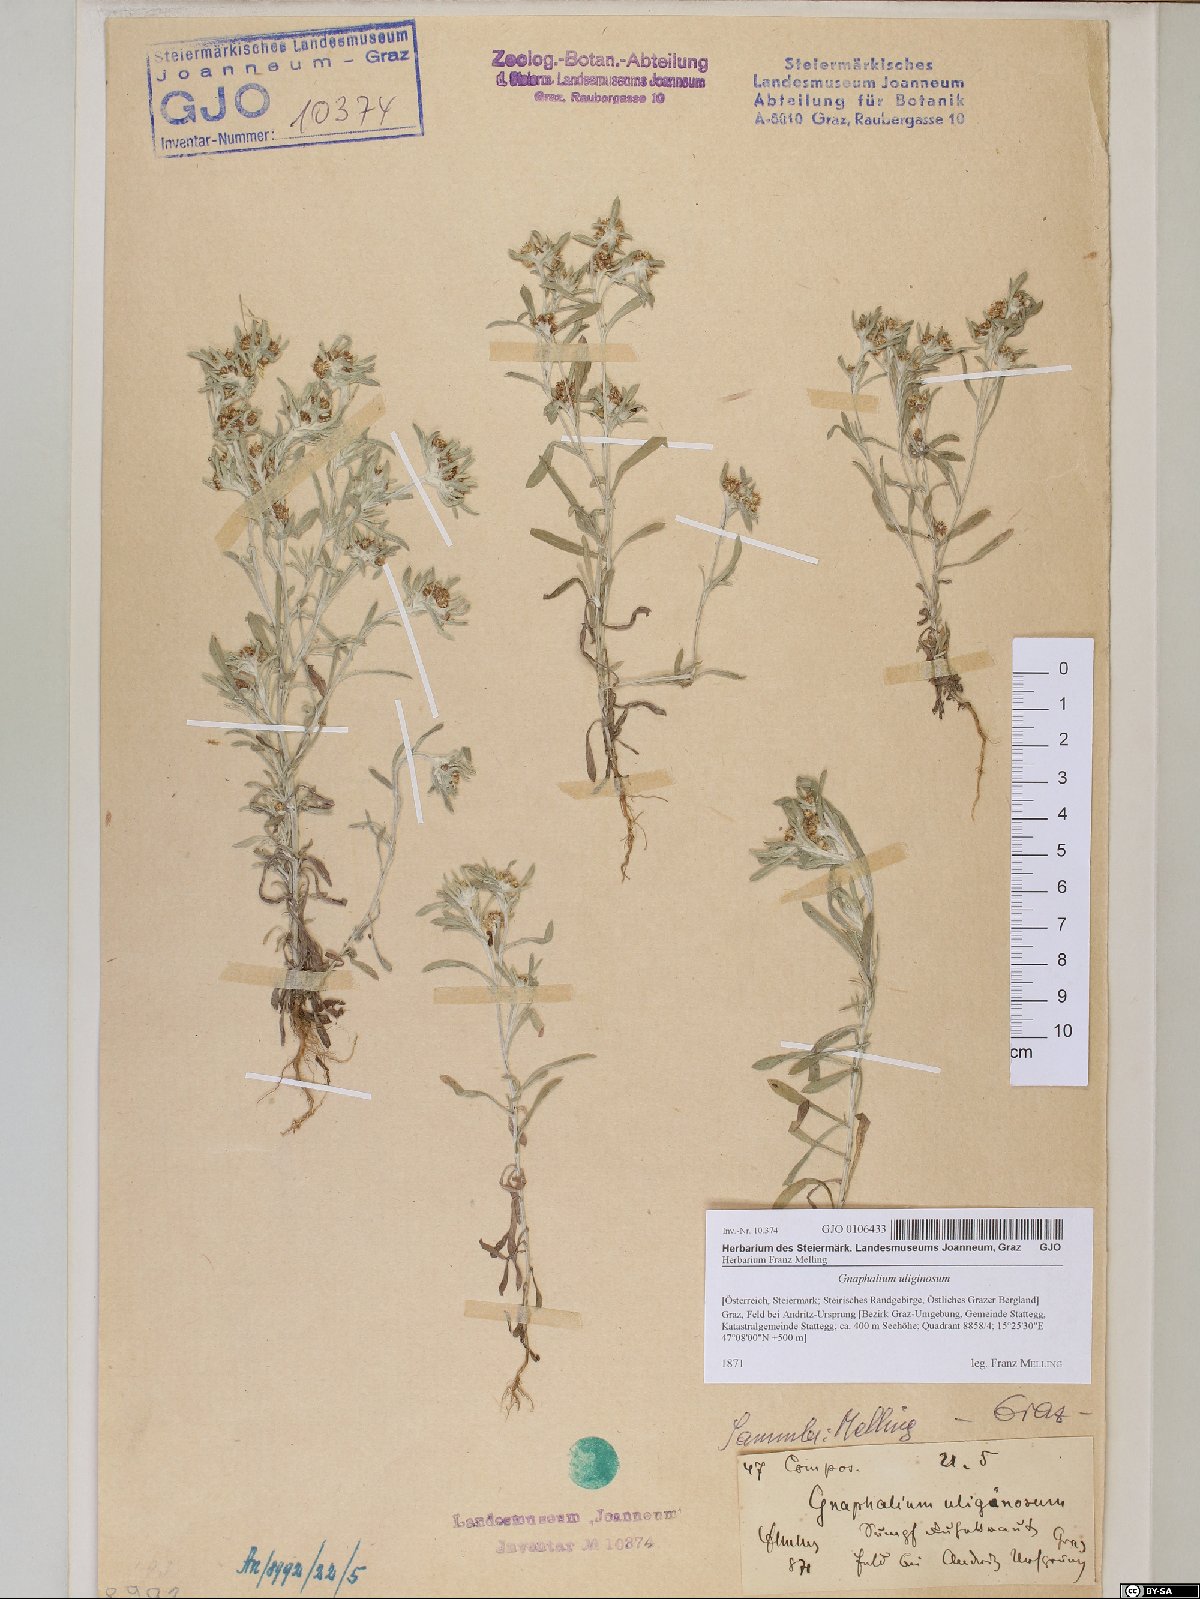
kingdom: Plantae
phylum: Tracheophyta
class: Magnoliopsida
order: Asterales
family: Asteraceae
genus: Gnaphalium
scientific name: Gnaphalium uliginosum
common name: Marsh cudweed
